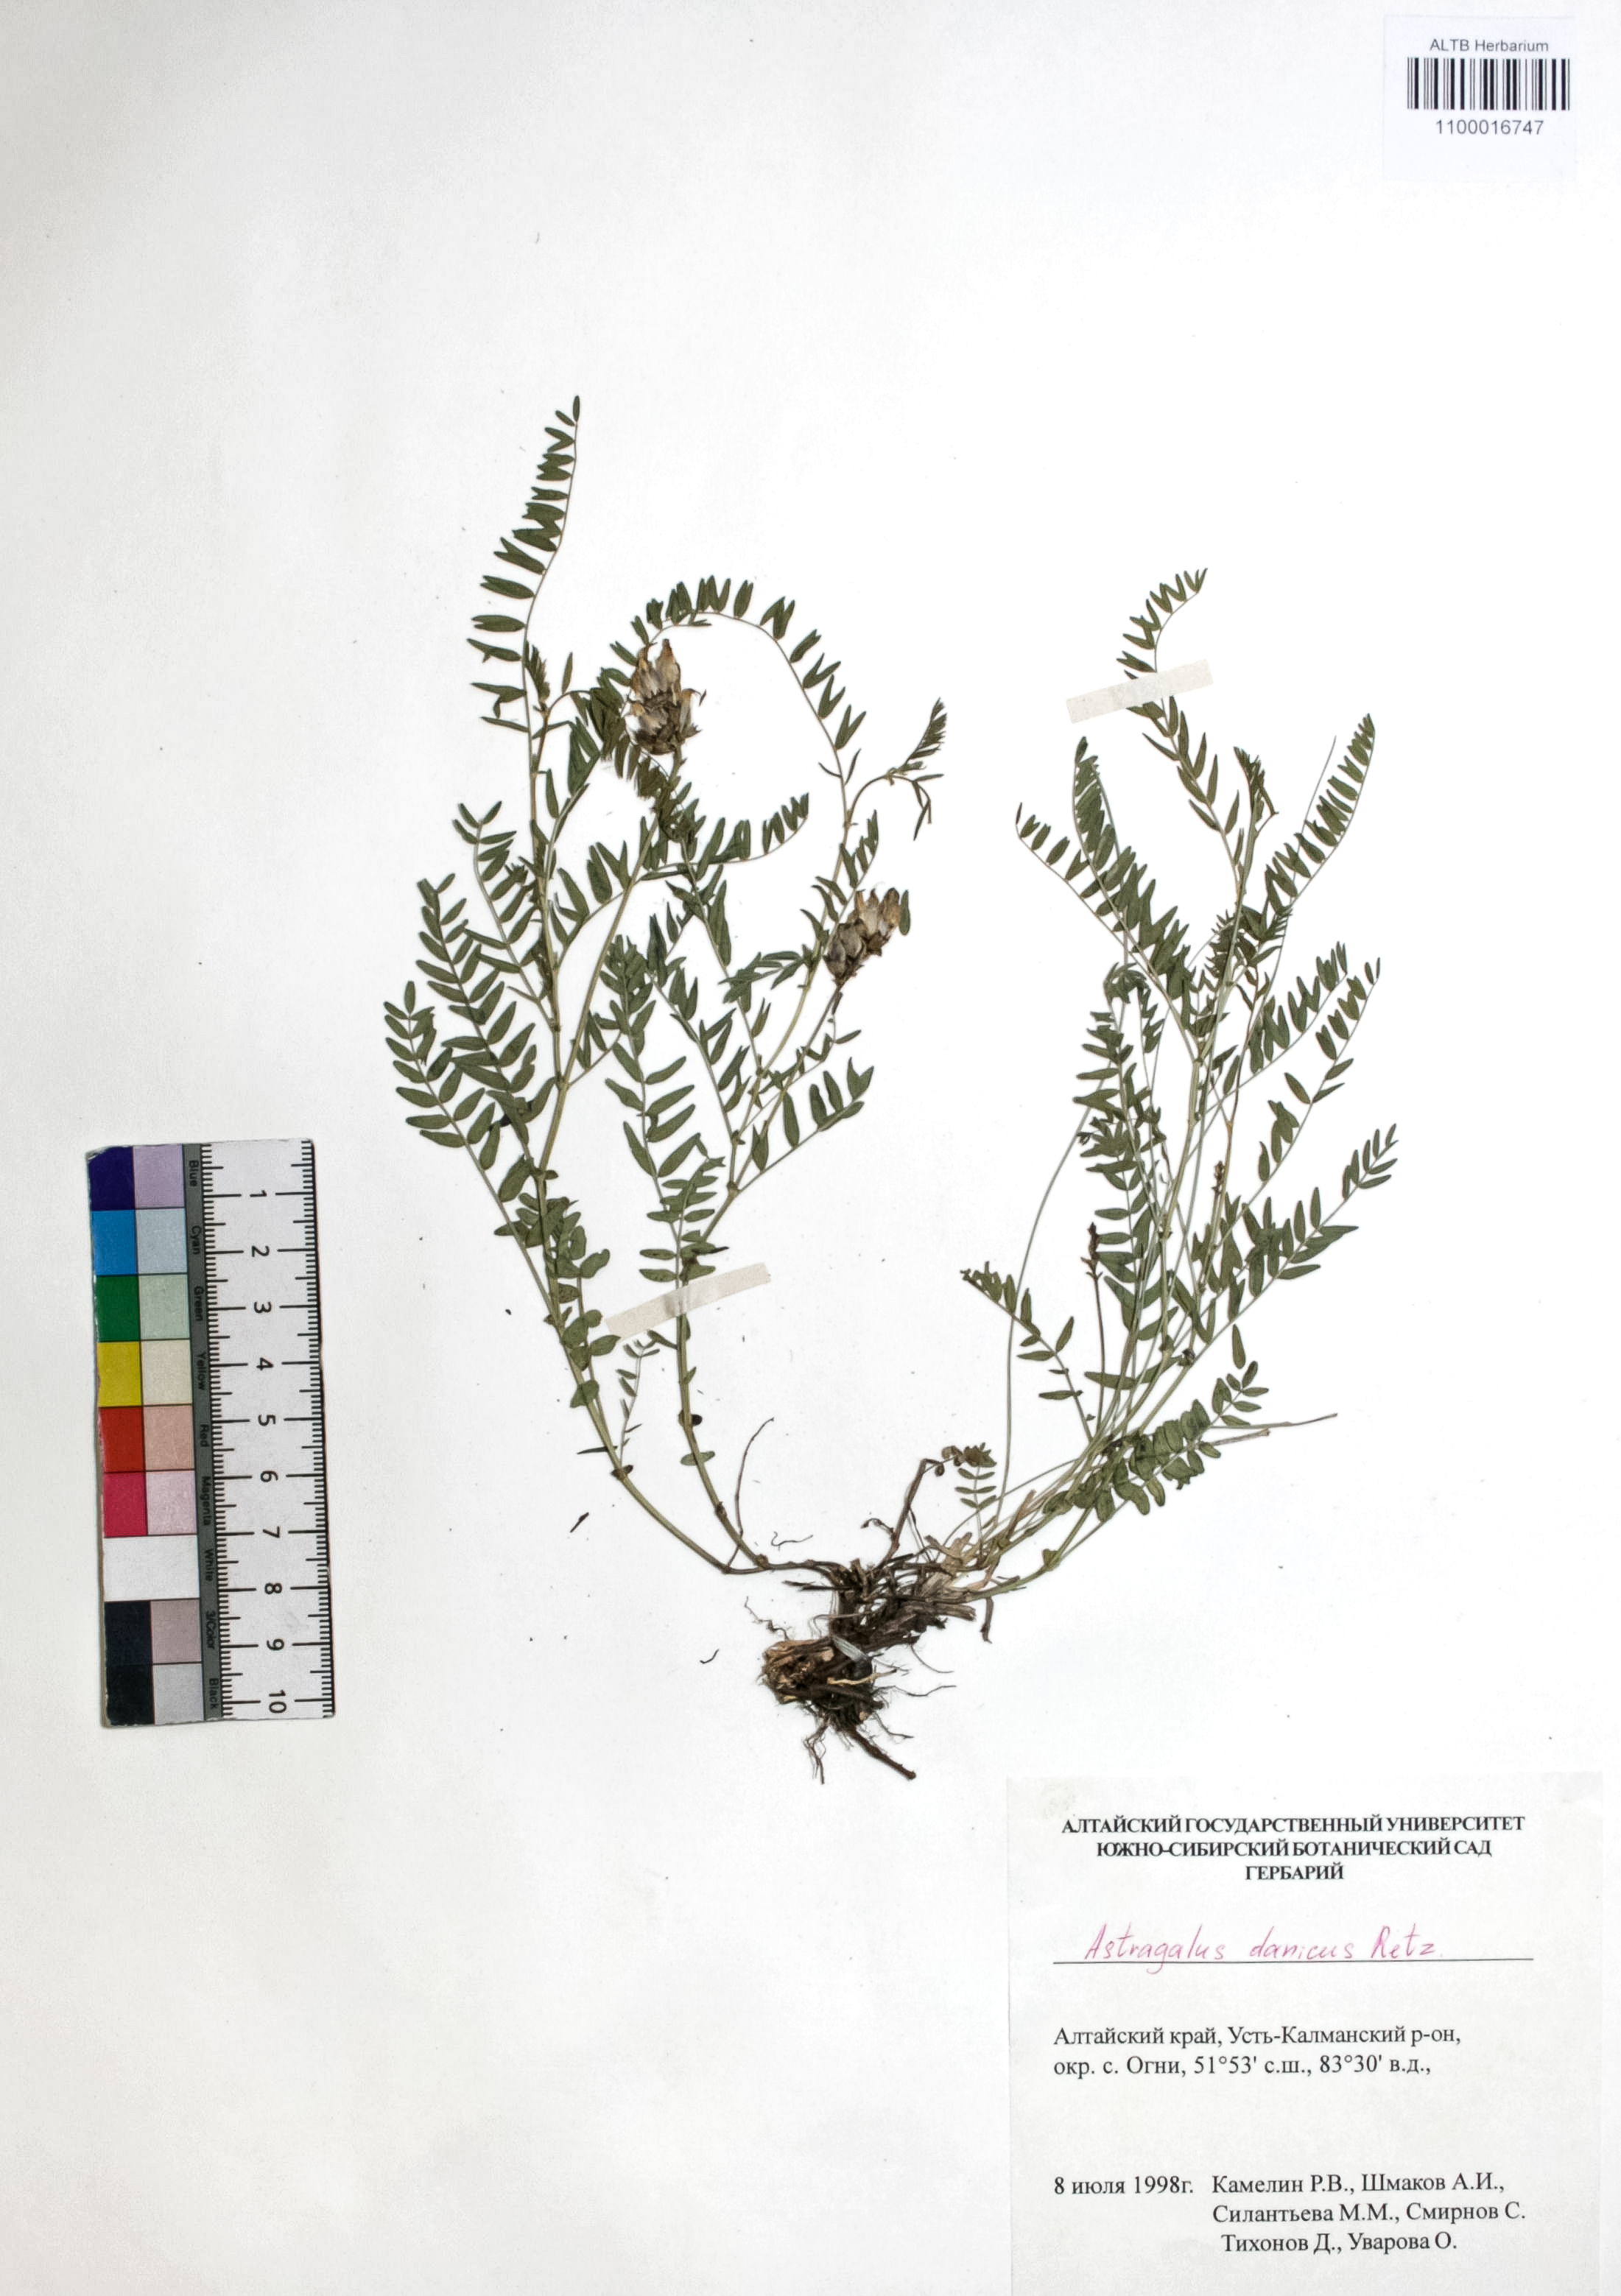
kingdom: Plantae
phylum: Tracheophyta
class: Magnoliopsida
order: Fabales
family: Fabaceae
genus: Astragalus
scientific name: Astragalus danicus
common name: Purple milk-vetch
